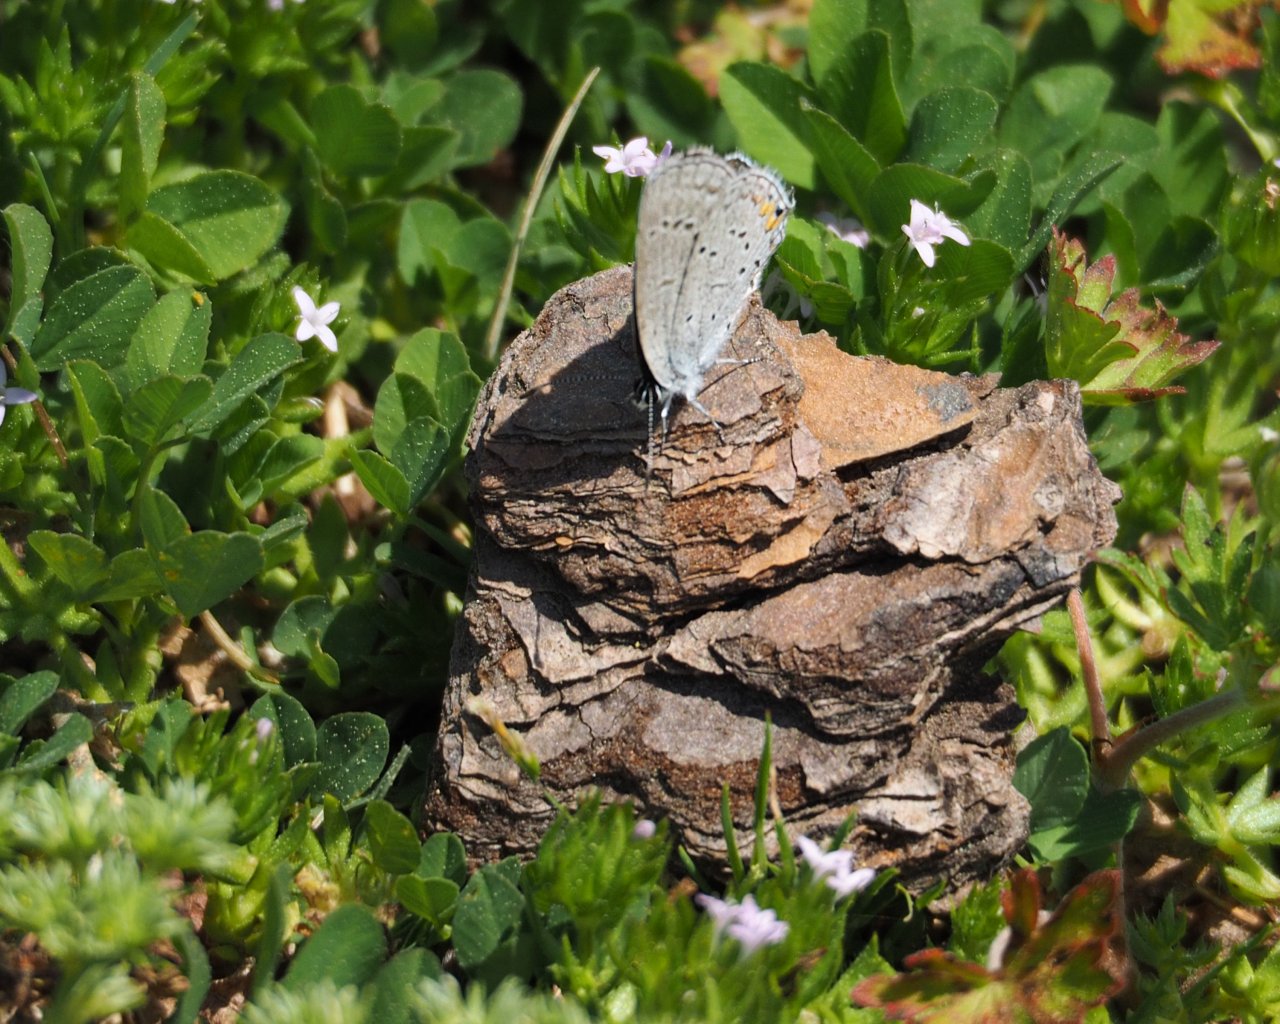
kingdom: Animalia
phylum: Arthropoda
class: Insecta
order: Lepidoptera
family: Lycaenidae
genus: Elkalyce
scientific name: Elkalyce comyntas
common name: Eastern Tailed-Blue
